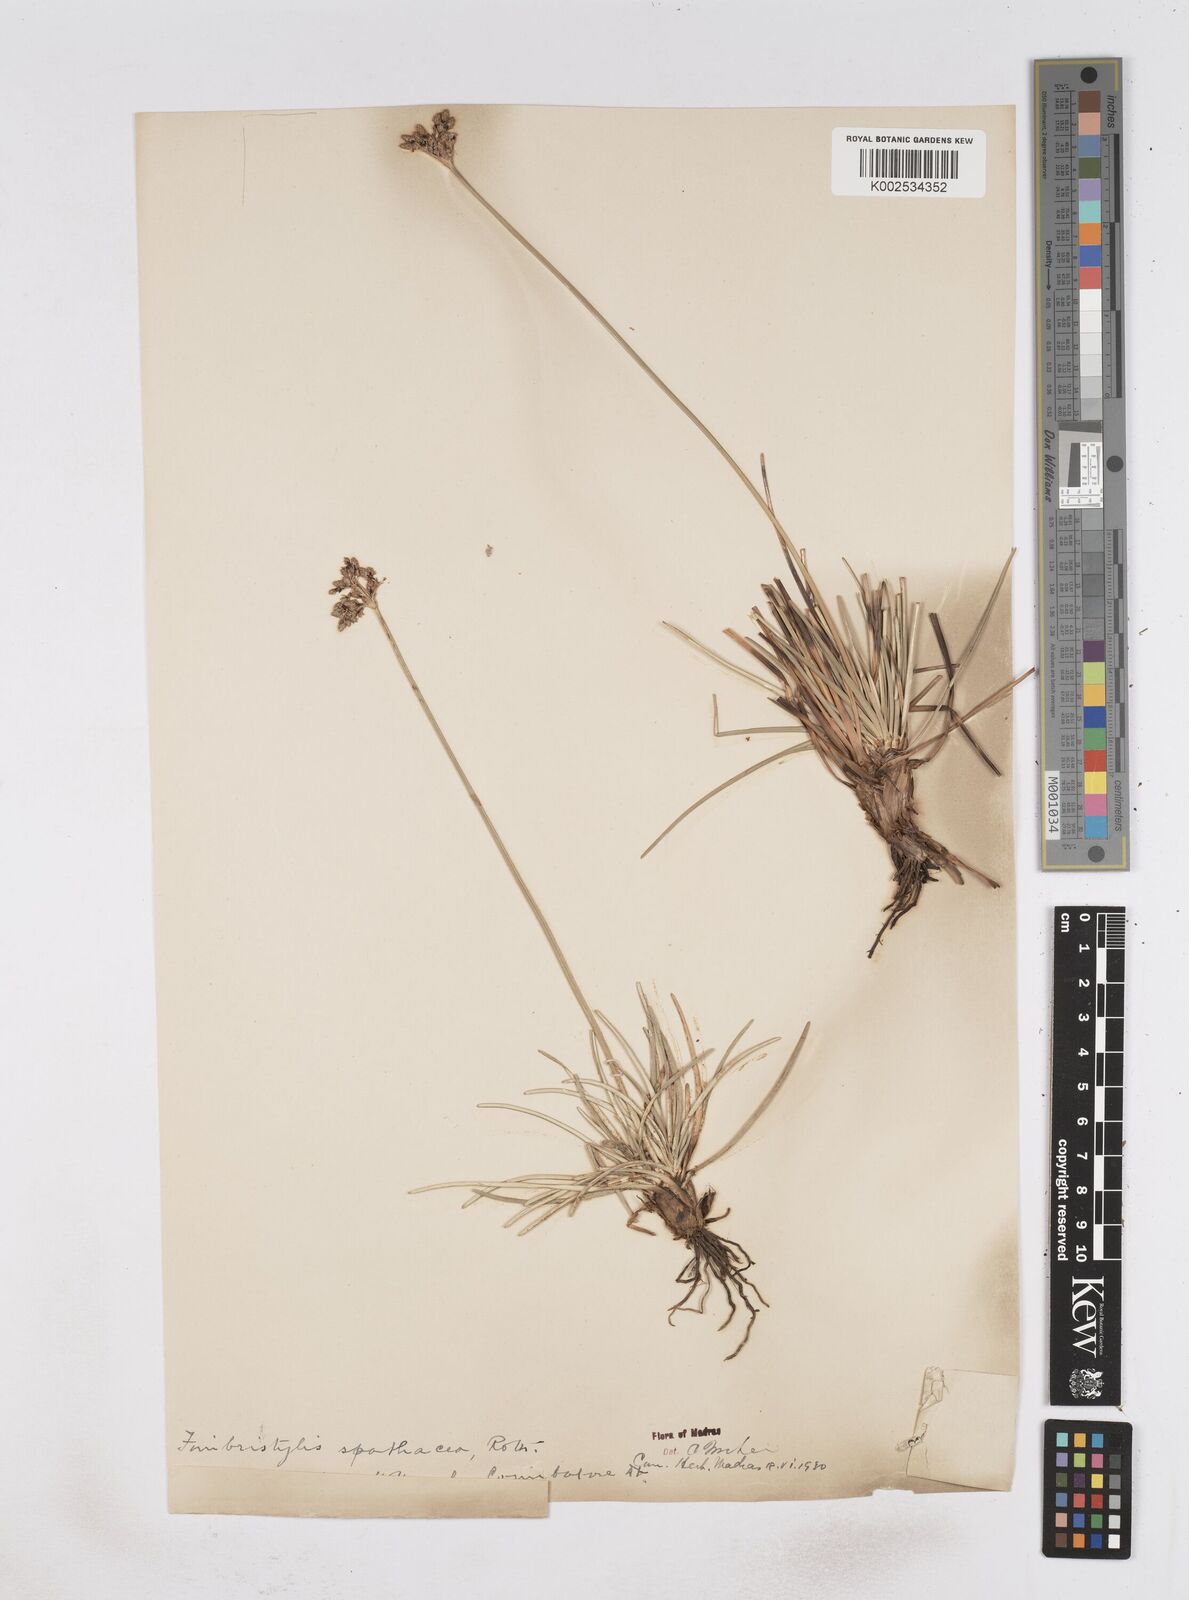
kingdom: Plantae
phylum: Tracheophyta
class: Liliopsida
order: Poales
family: Cyperaceae
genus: Fimbristylis
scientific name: Fimbristylis cymosa
